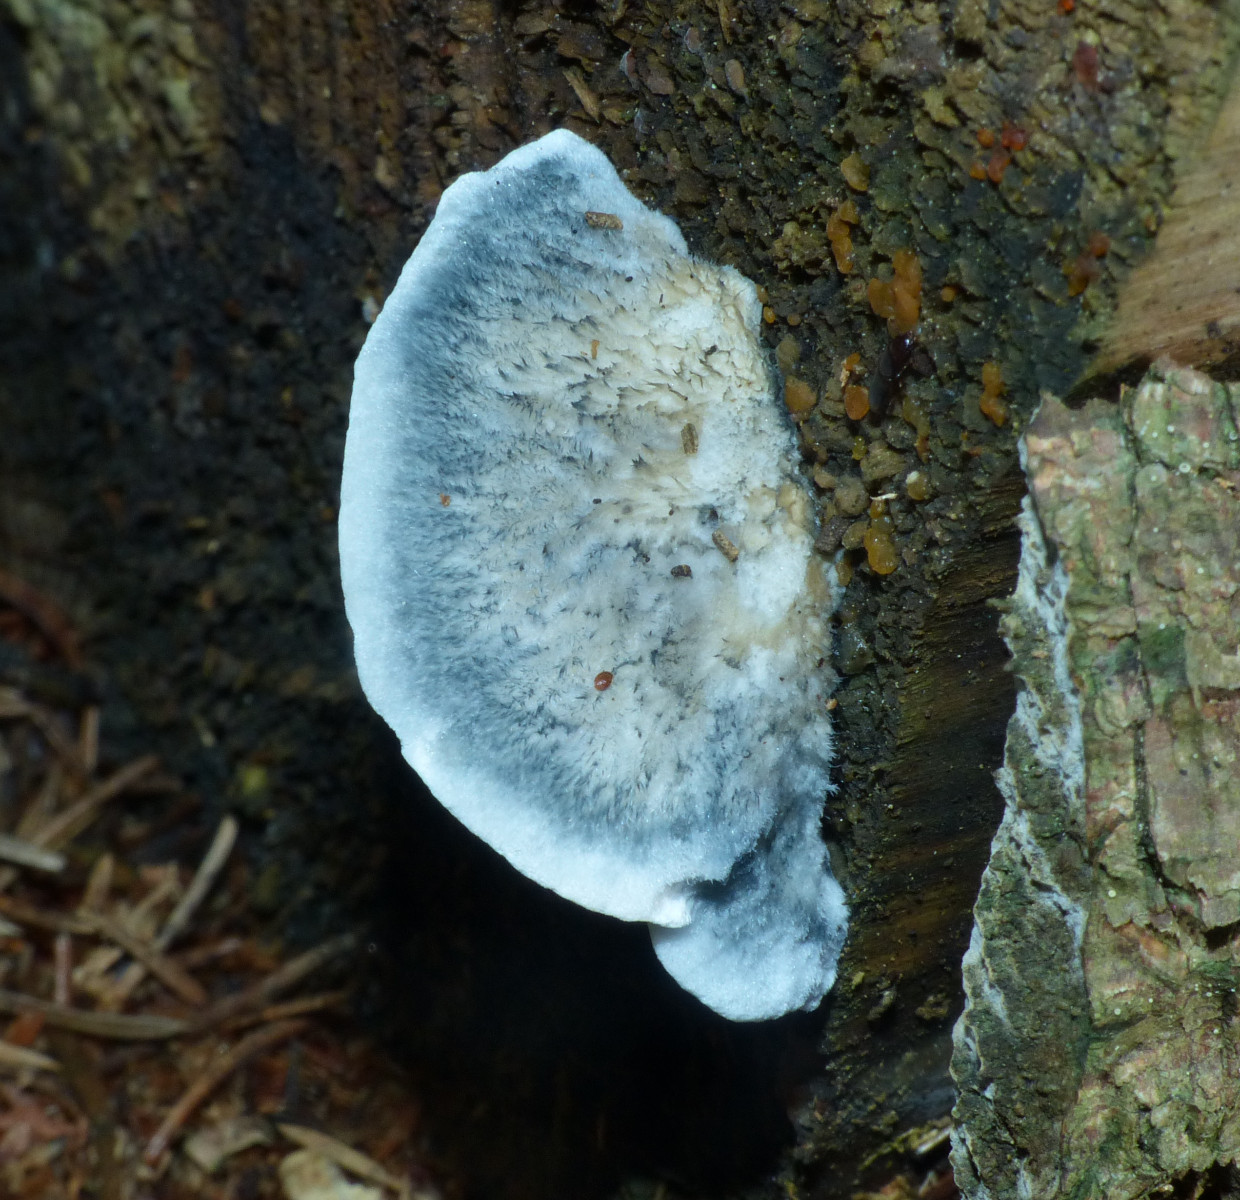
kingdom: Fungi
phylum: Basidiomycota
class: Agaricomycetes
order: Polyporales
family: Polyporaceae
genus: Cyanosporus
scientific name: Cyanosporus caesius
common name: blålig kødporesvamp
